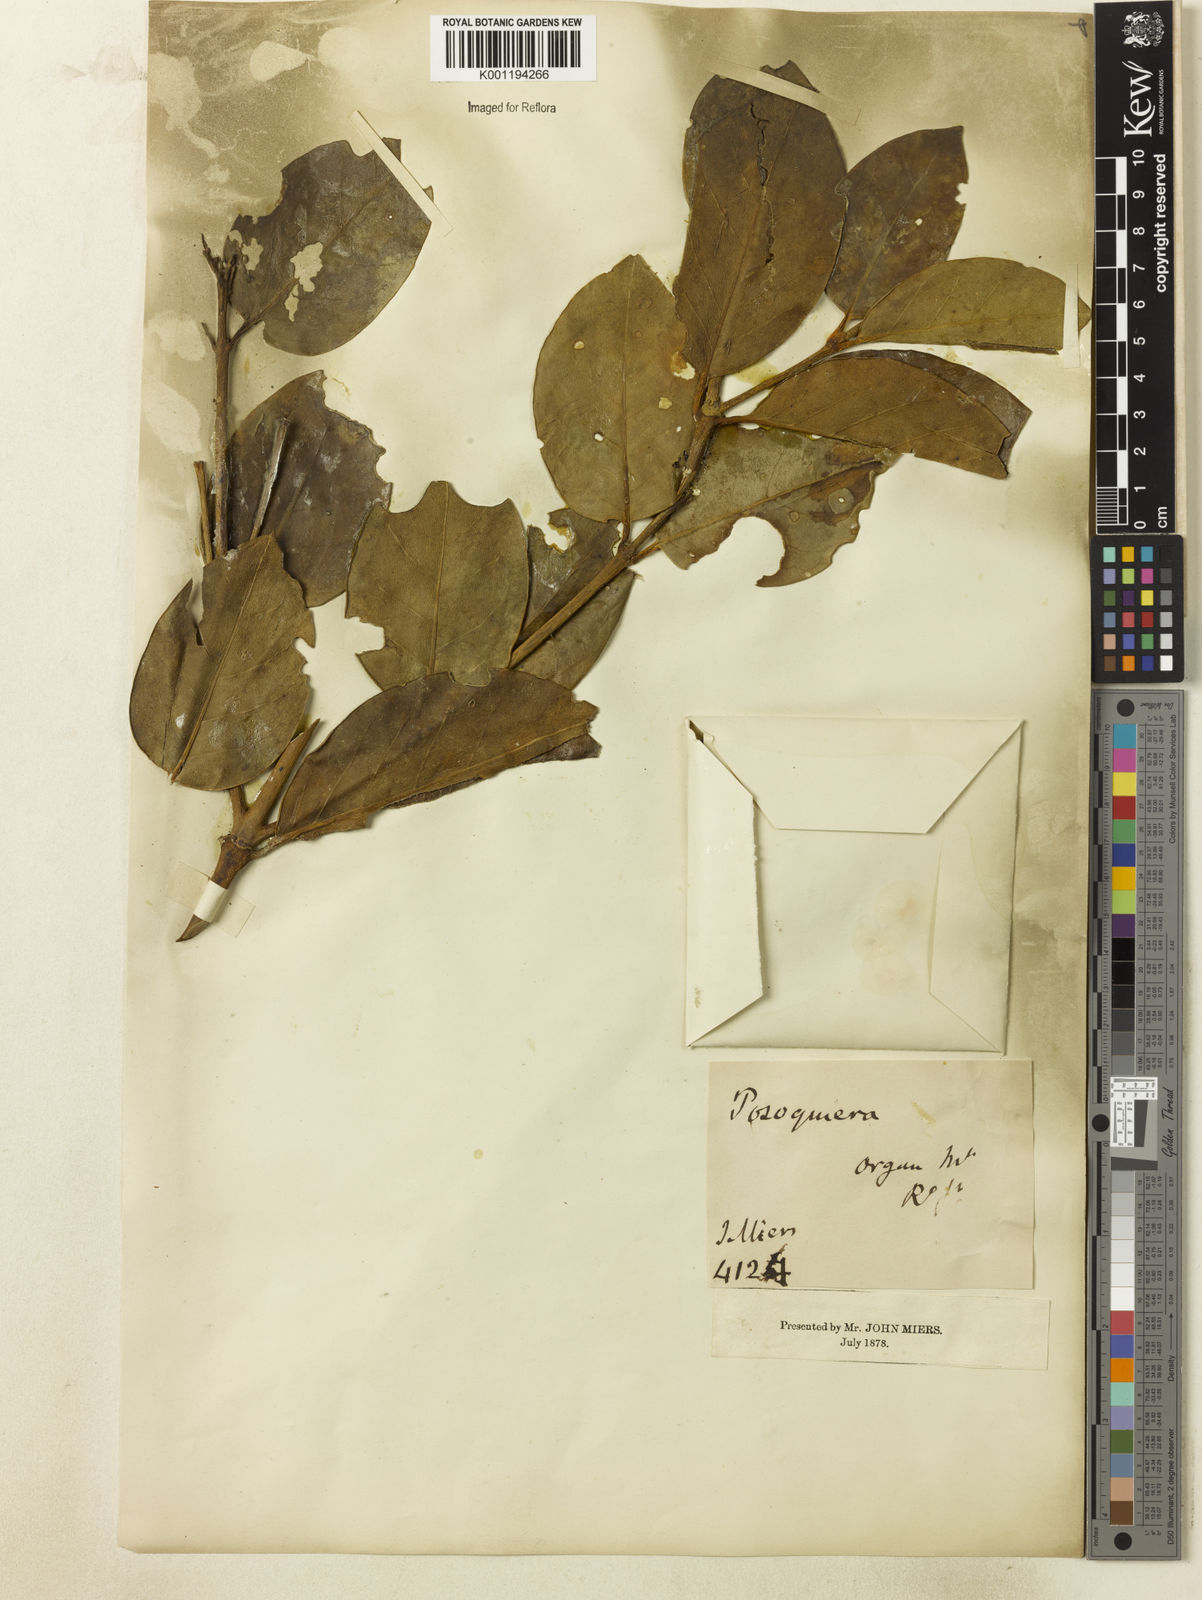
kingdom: Plantae
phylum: Tracheophyta
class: Magnoliopsida
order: Gentianales
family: Rubiaceae
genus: Posoqueria
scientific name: Posoqueria latifolia
